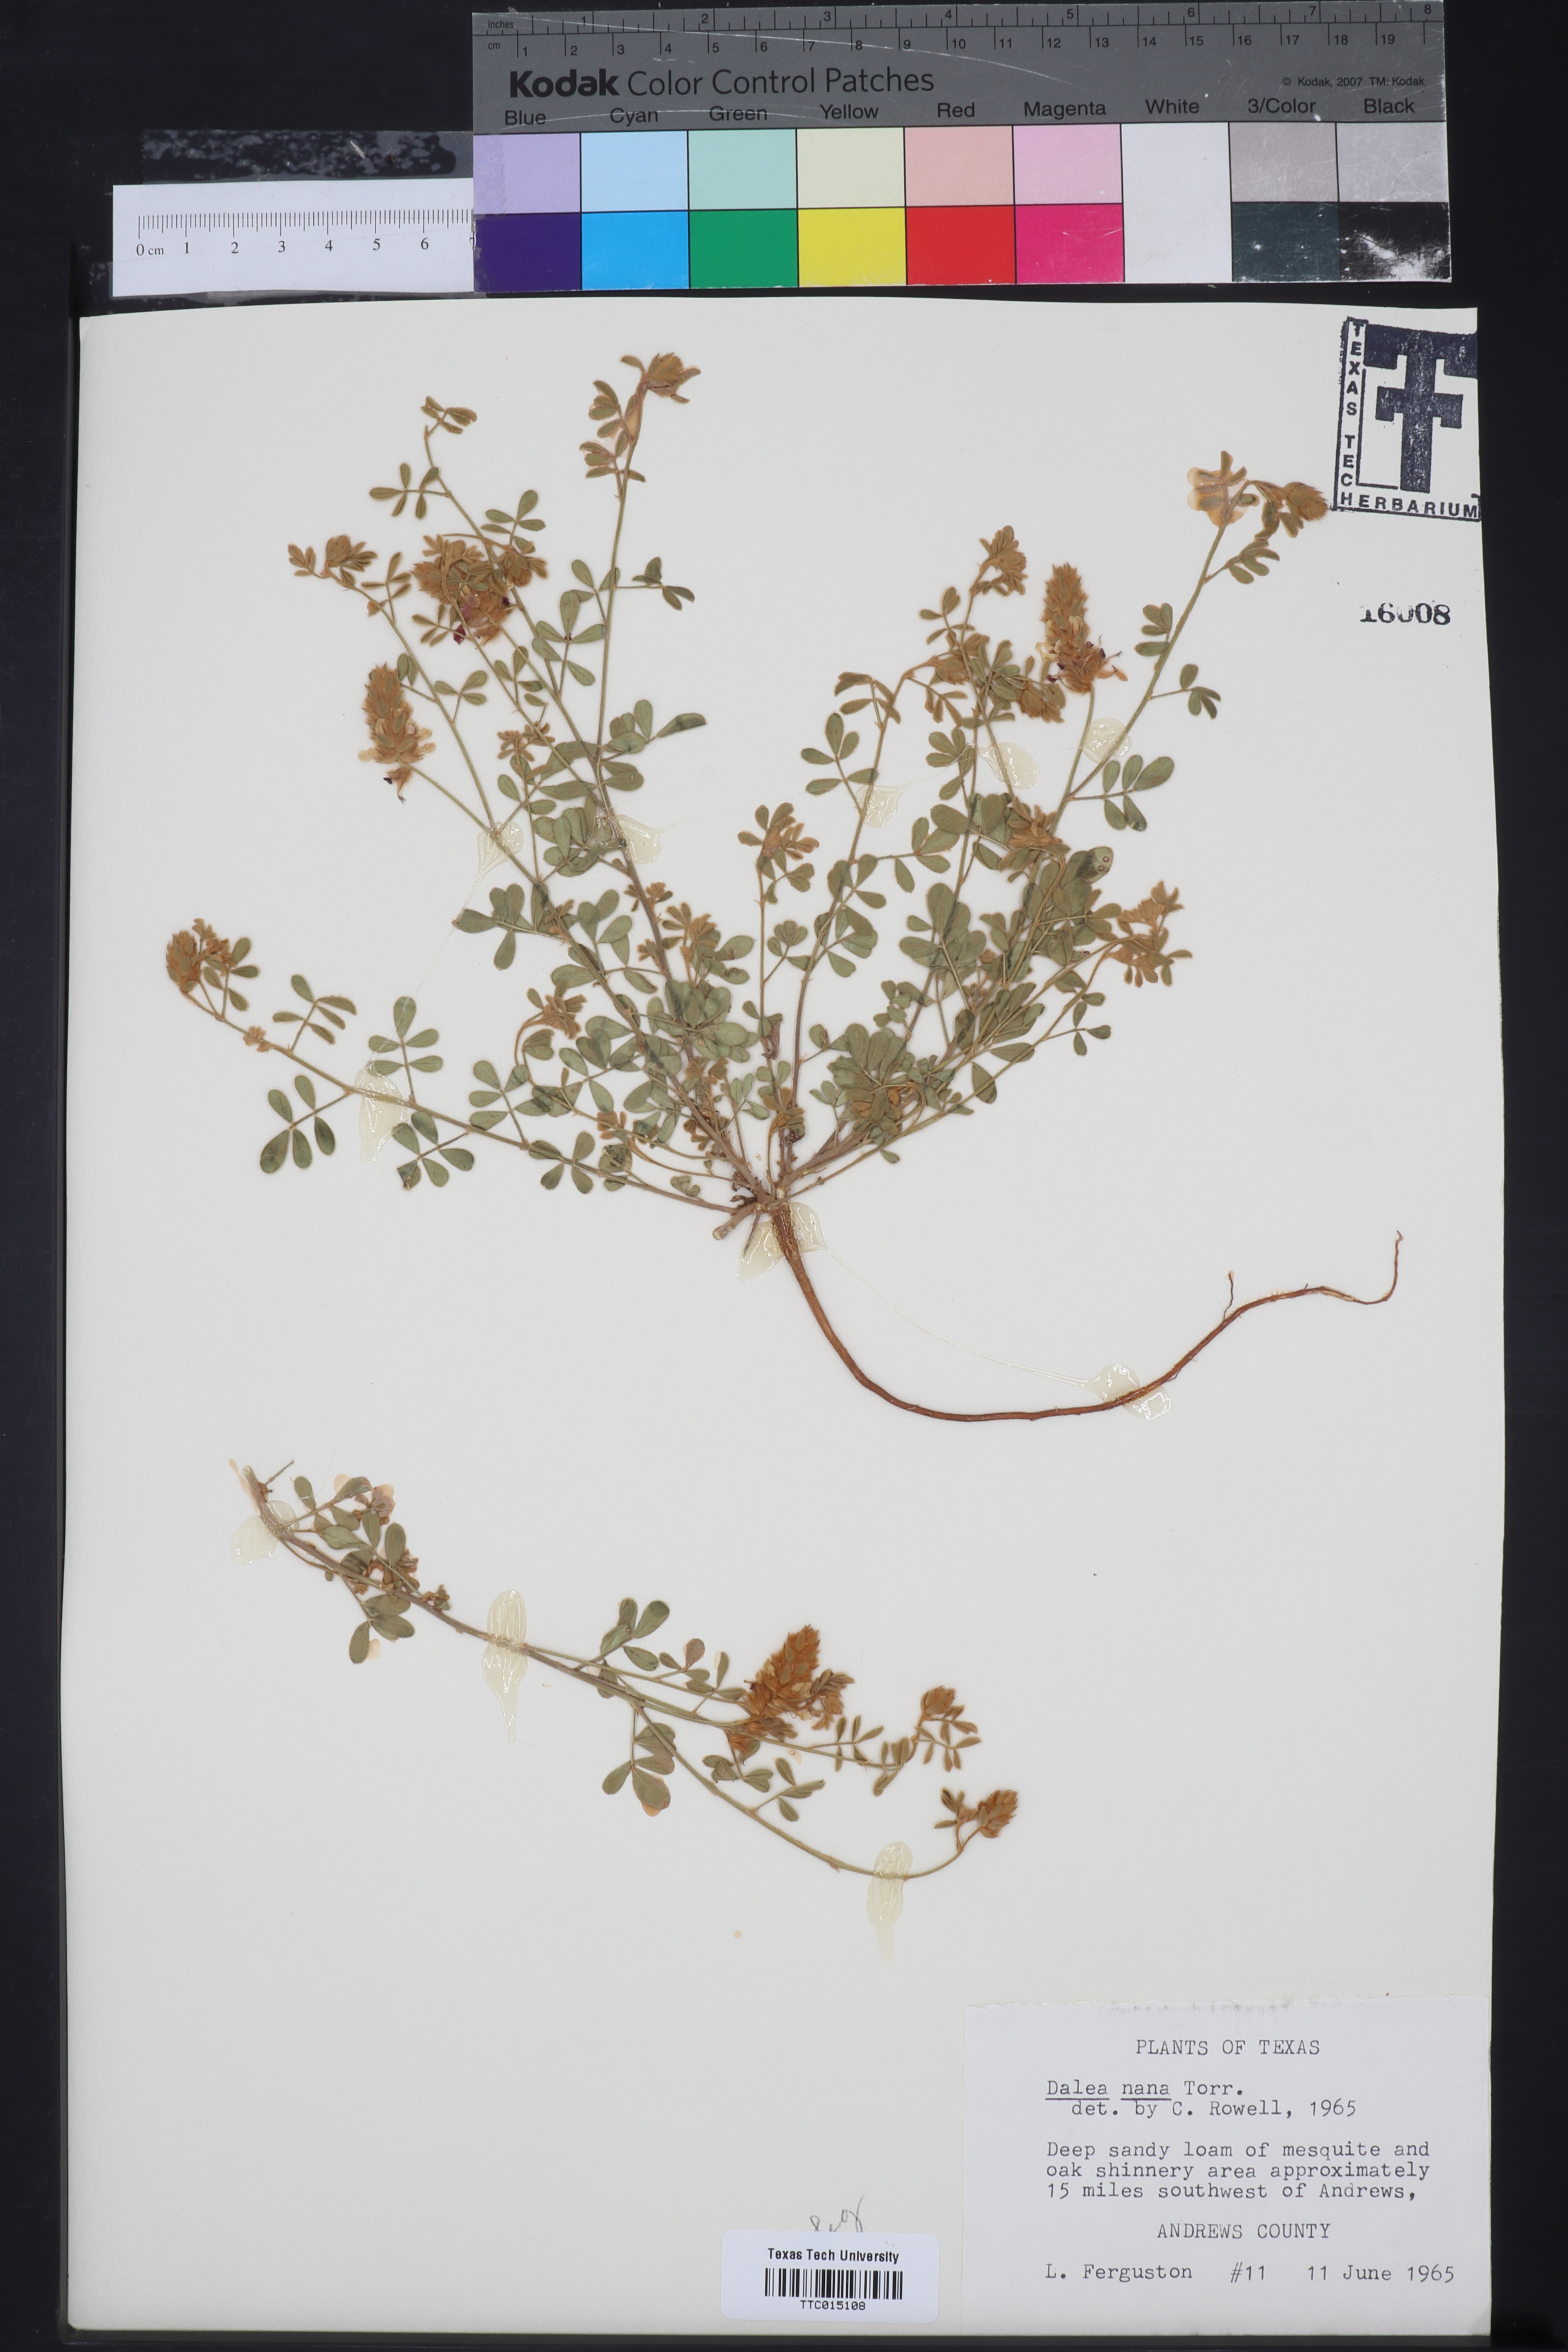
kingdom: Plantae
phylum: Tracheophyta
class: Magnoliopsida
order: Fabales
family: Fabaceae
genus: Dalea
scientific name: Dalea nana
